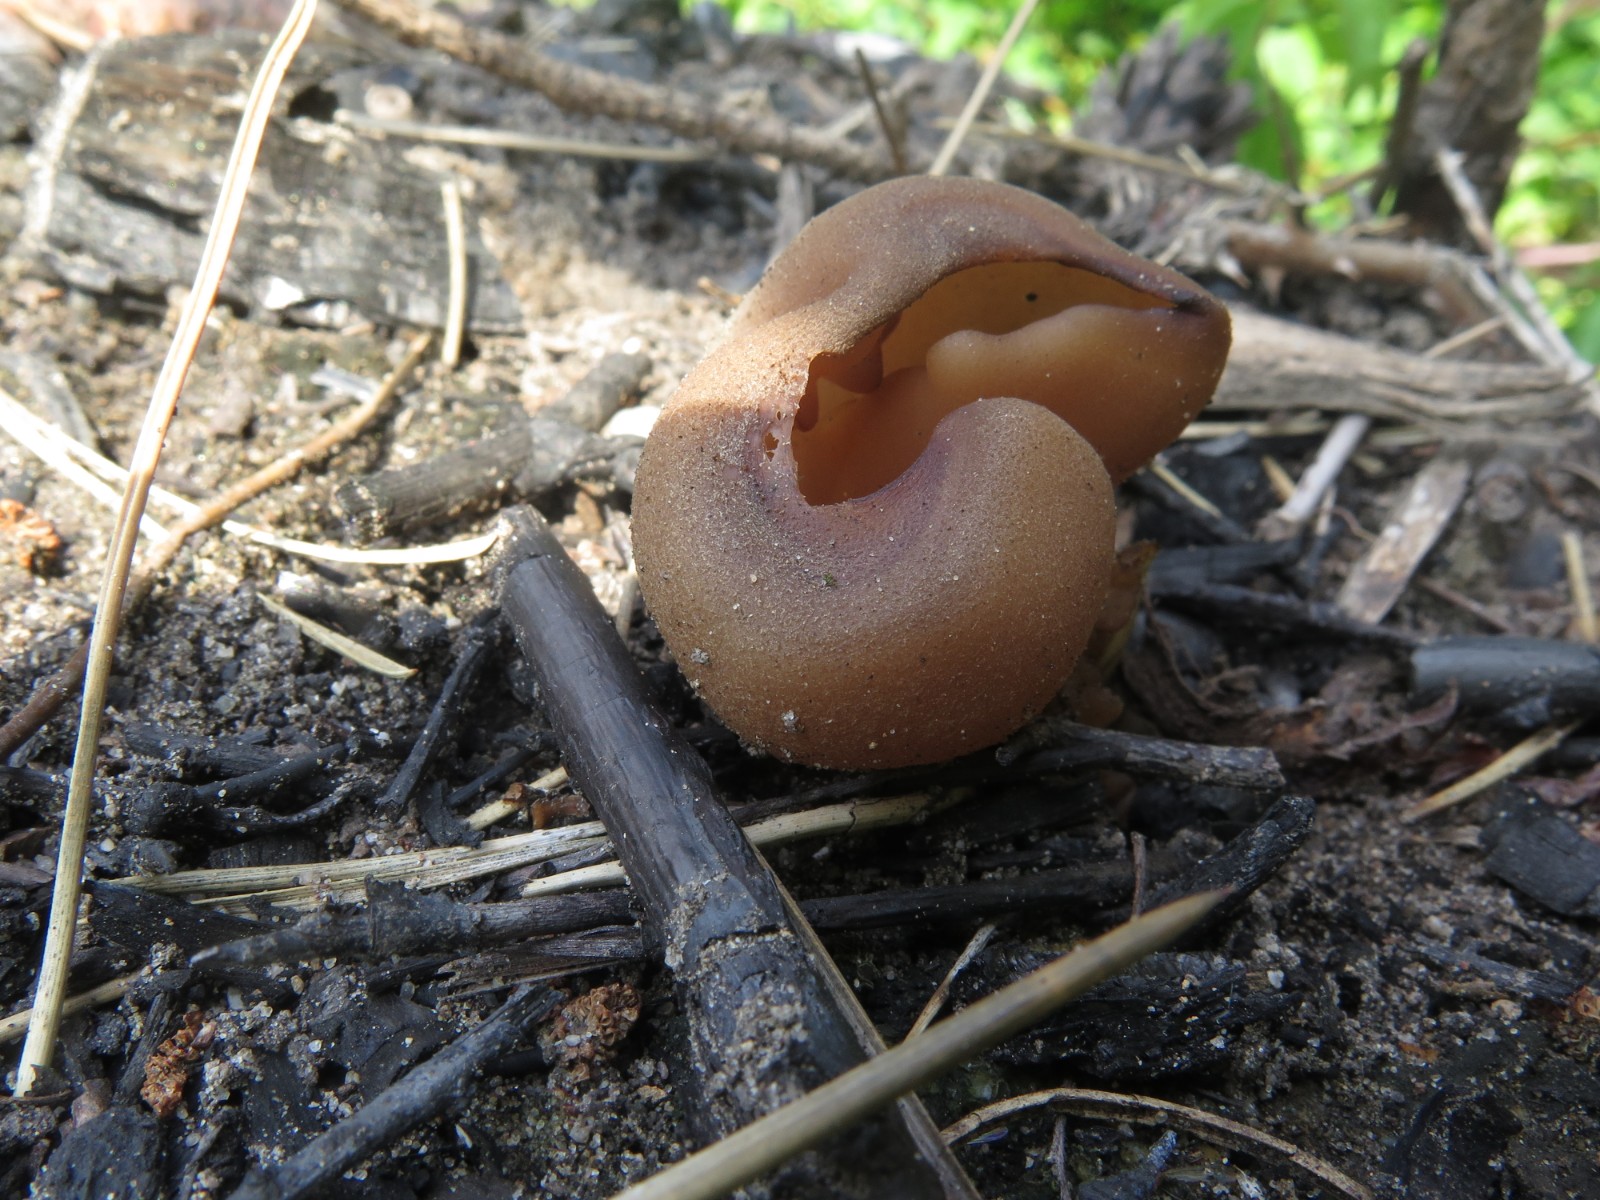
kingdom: Fungi
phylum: Ascomycota
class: Pezizomycetes
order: Pezizales
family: Pezizaceae
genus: Daleomyces
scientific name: Daleomyces petersii
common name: brandplet-bægersvamp
